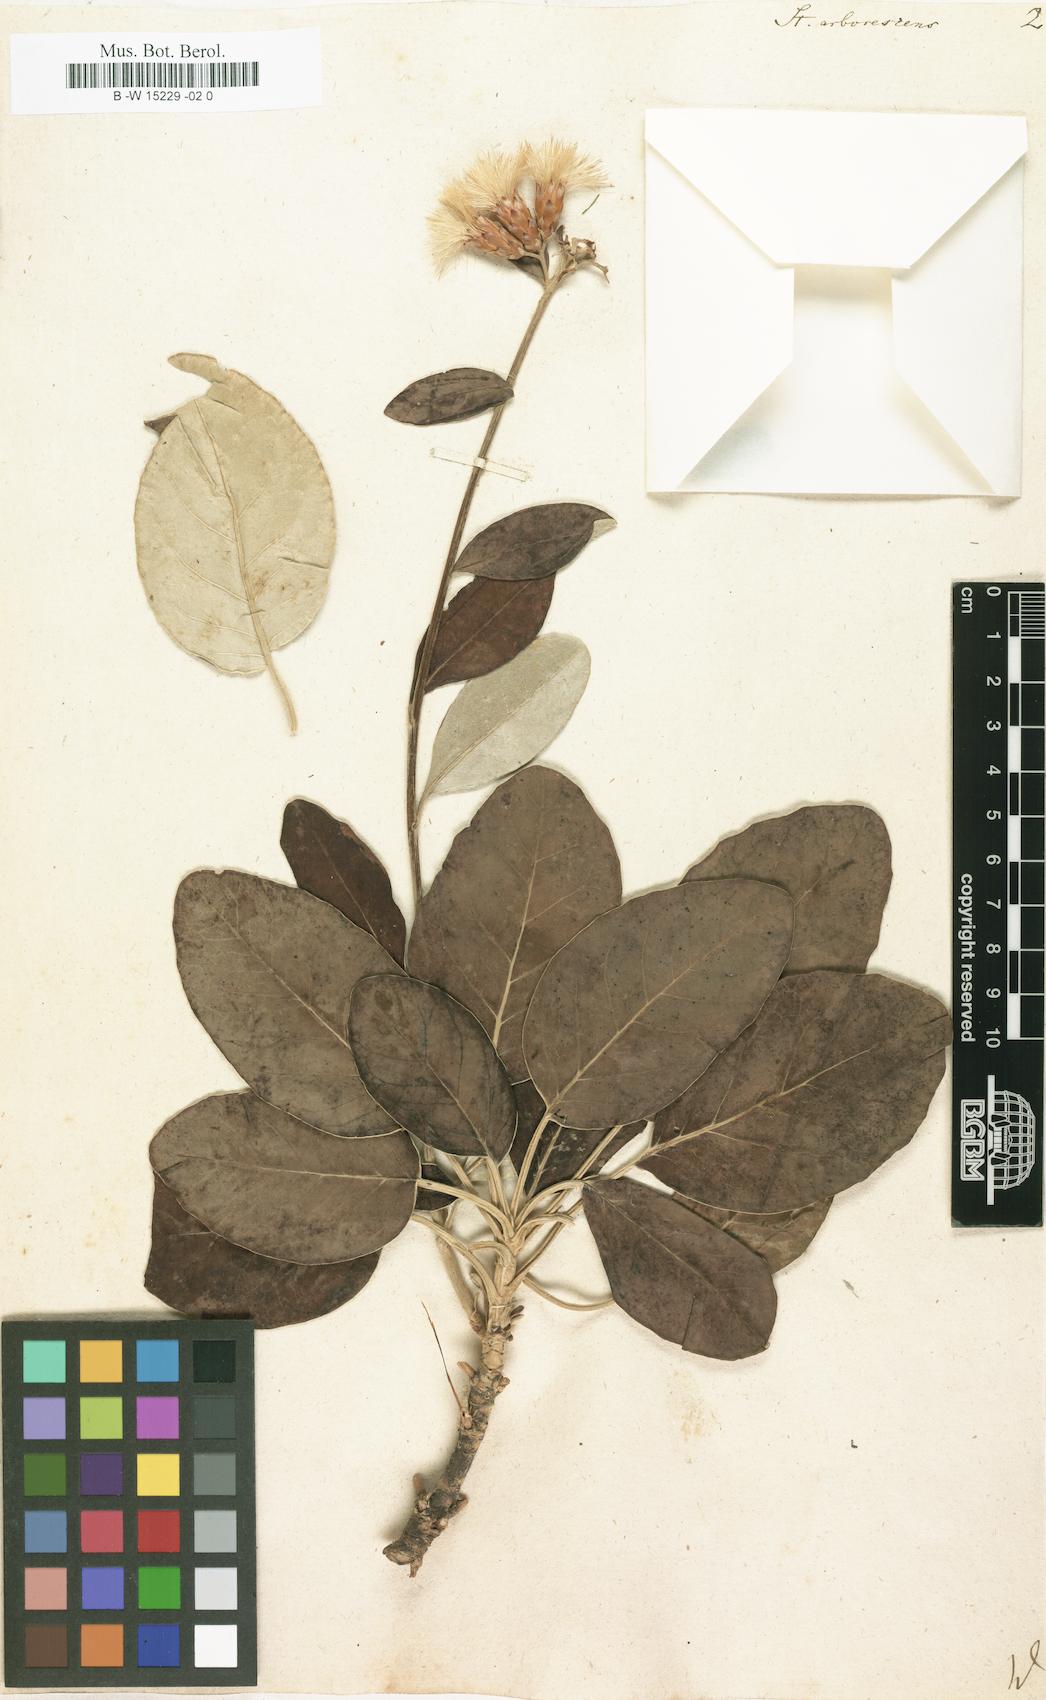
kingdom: Plantae
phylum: Tracheophyta
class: Magnoliopsida
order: Asterales
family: Asteraceae
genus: Staehelina
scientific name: Staehelina petiolata
